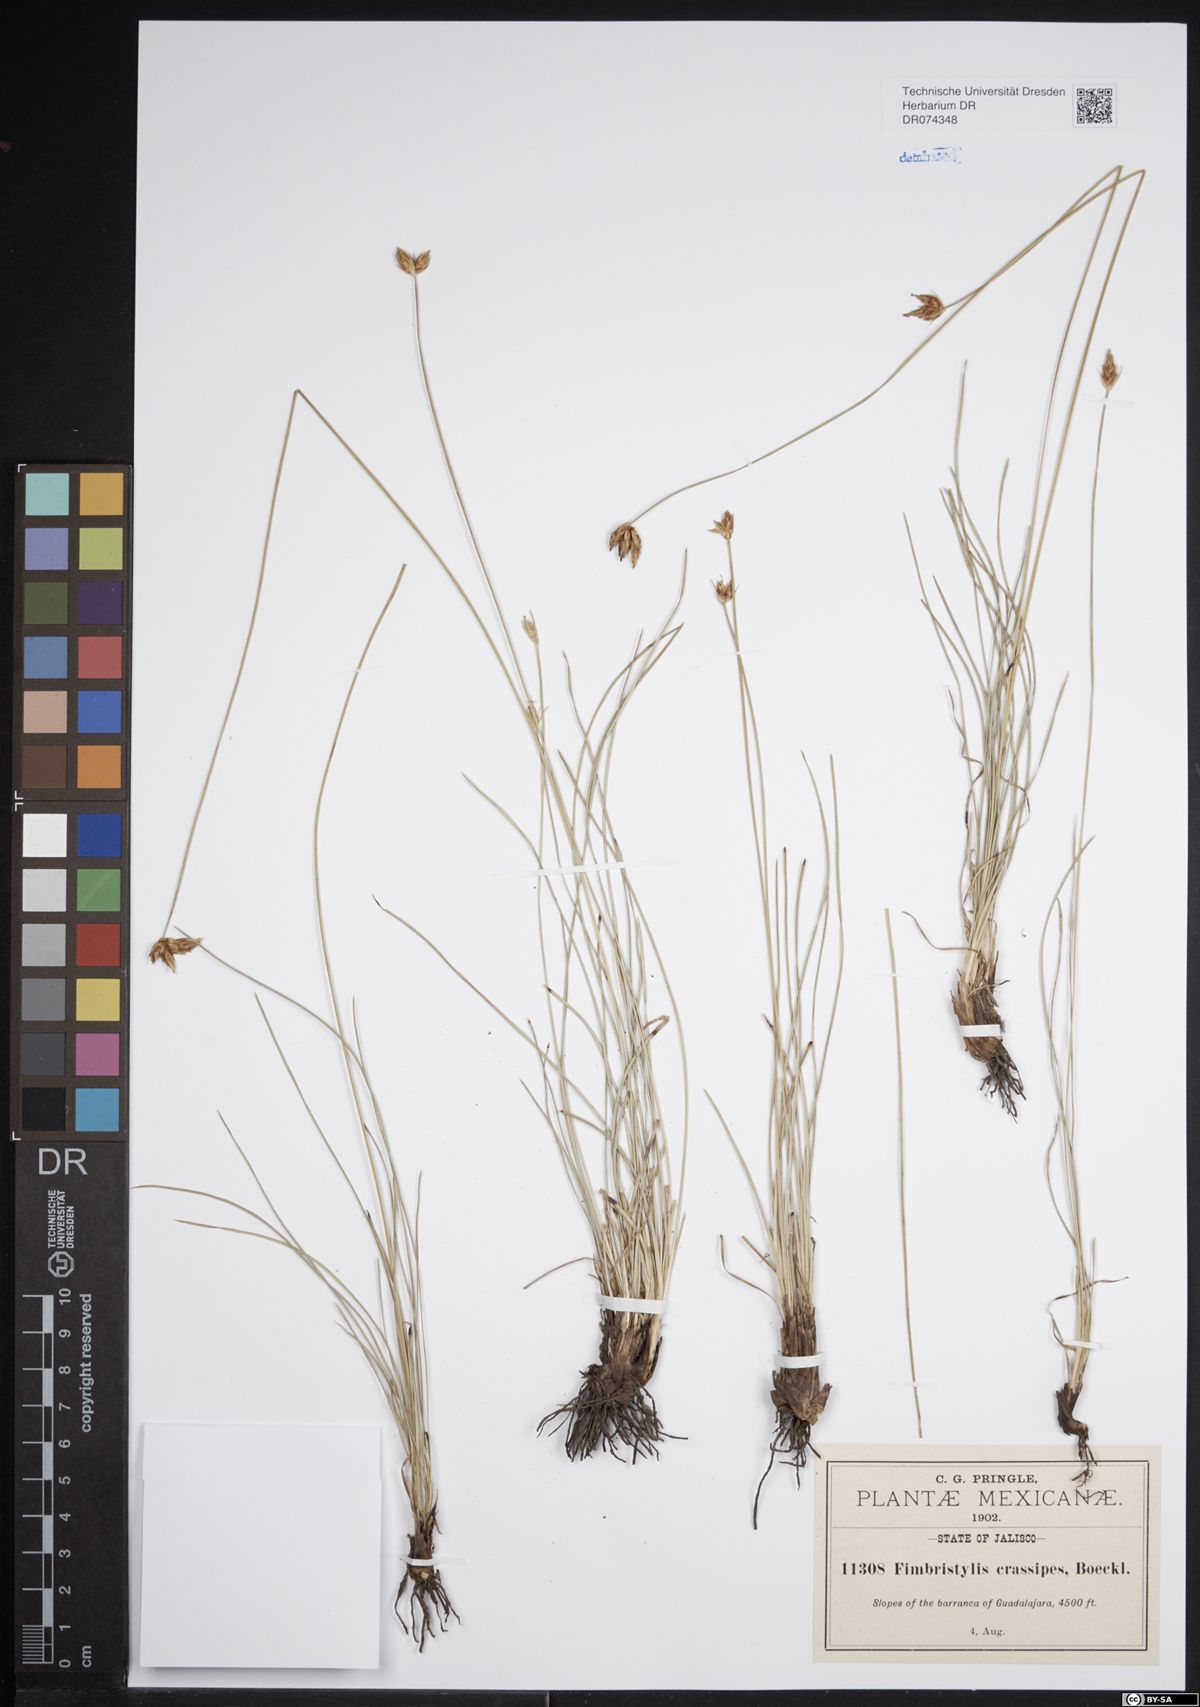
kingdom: Plantae
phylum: Tracheophyta
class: Liliopsida
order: Poales
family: Cyperaceae
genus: Fimbristylis
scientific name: Fimbristylis falcata
